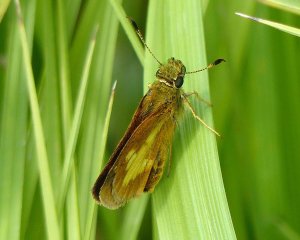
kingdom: Animalia
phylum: Arthropoda
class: Insecta
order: Lepidoptera
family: Hesperiidae
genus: Poanes
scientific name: Poanes massasoit
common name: Mulberry Wing
